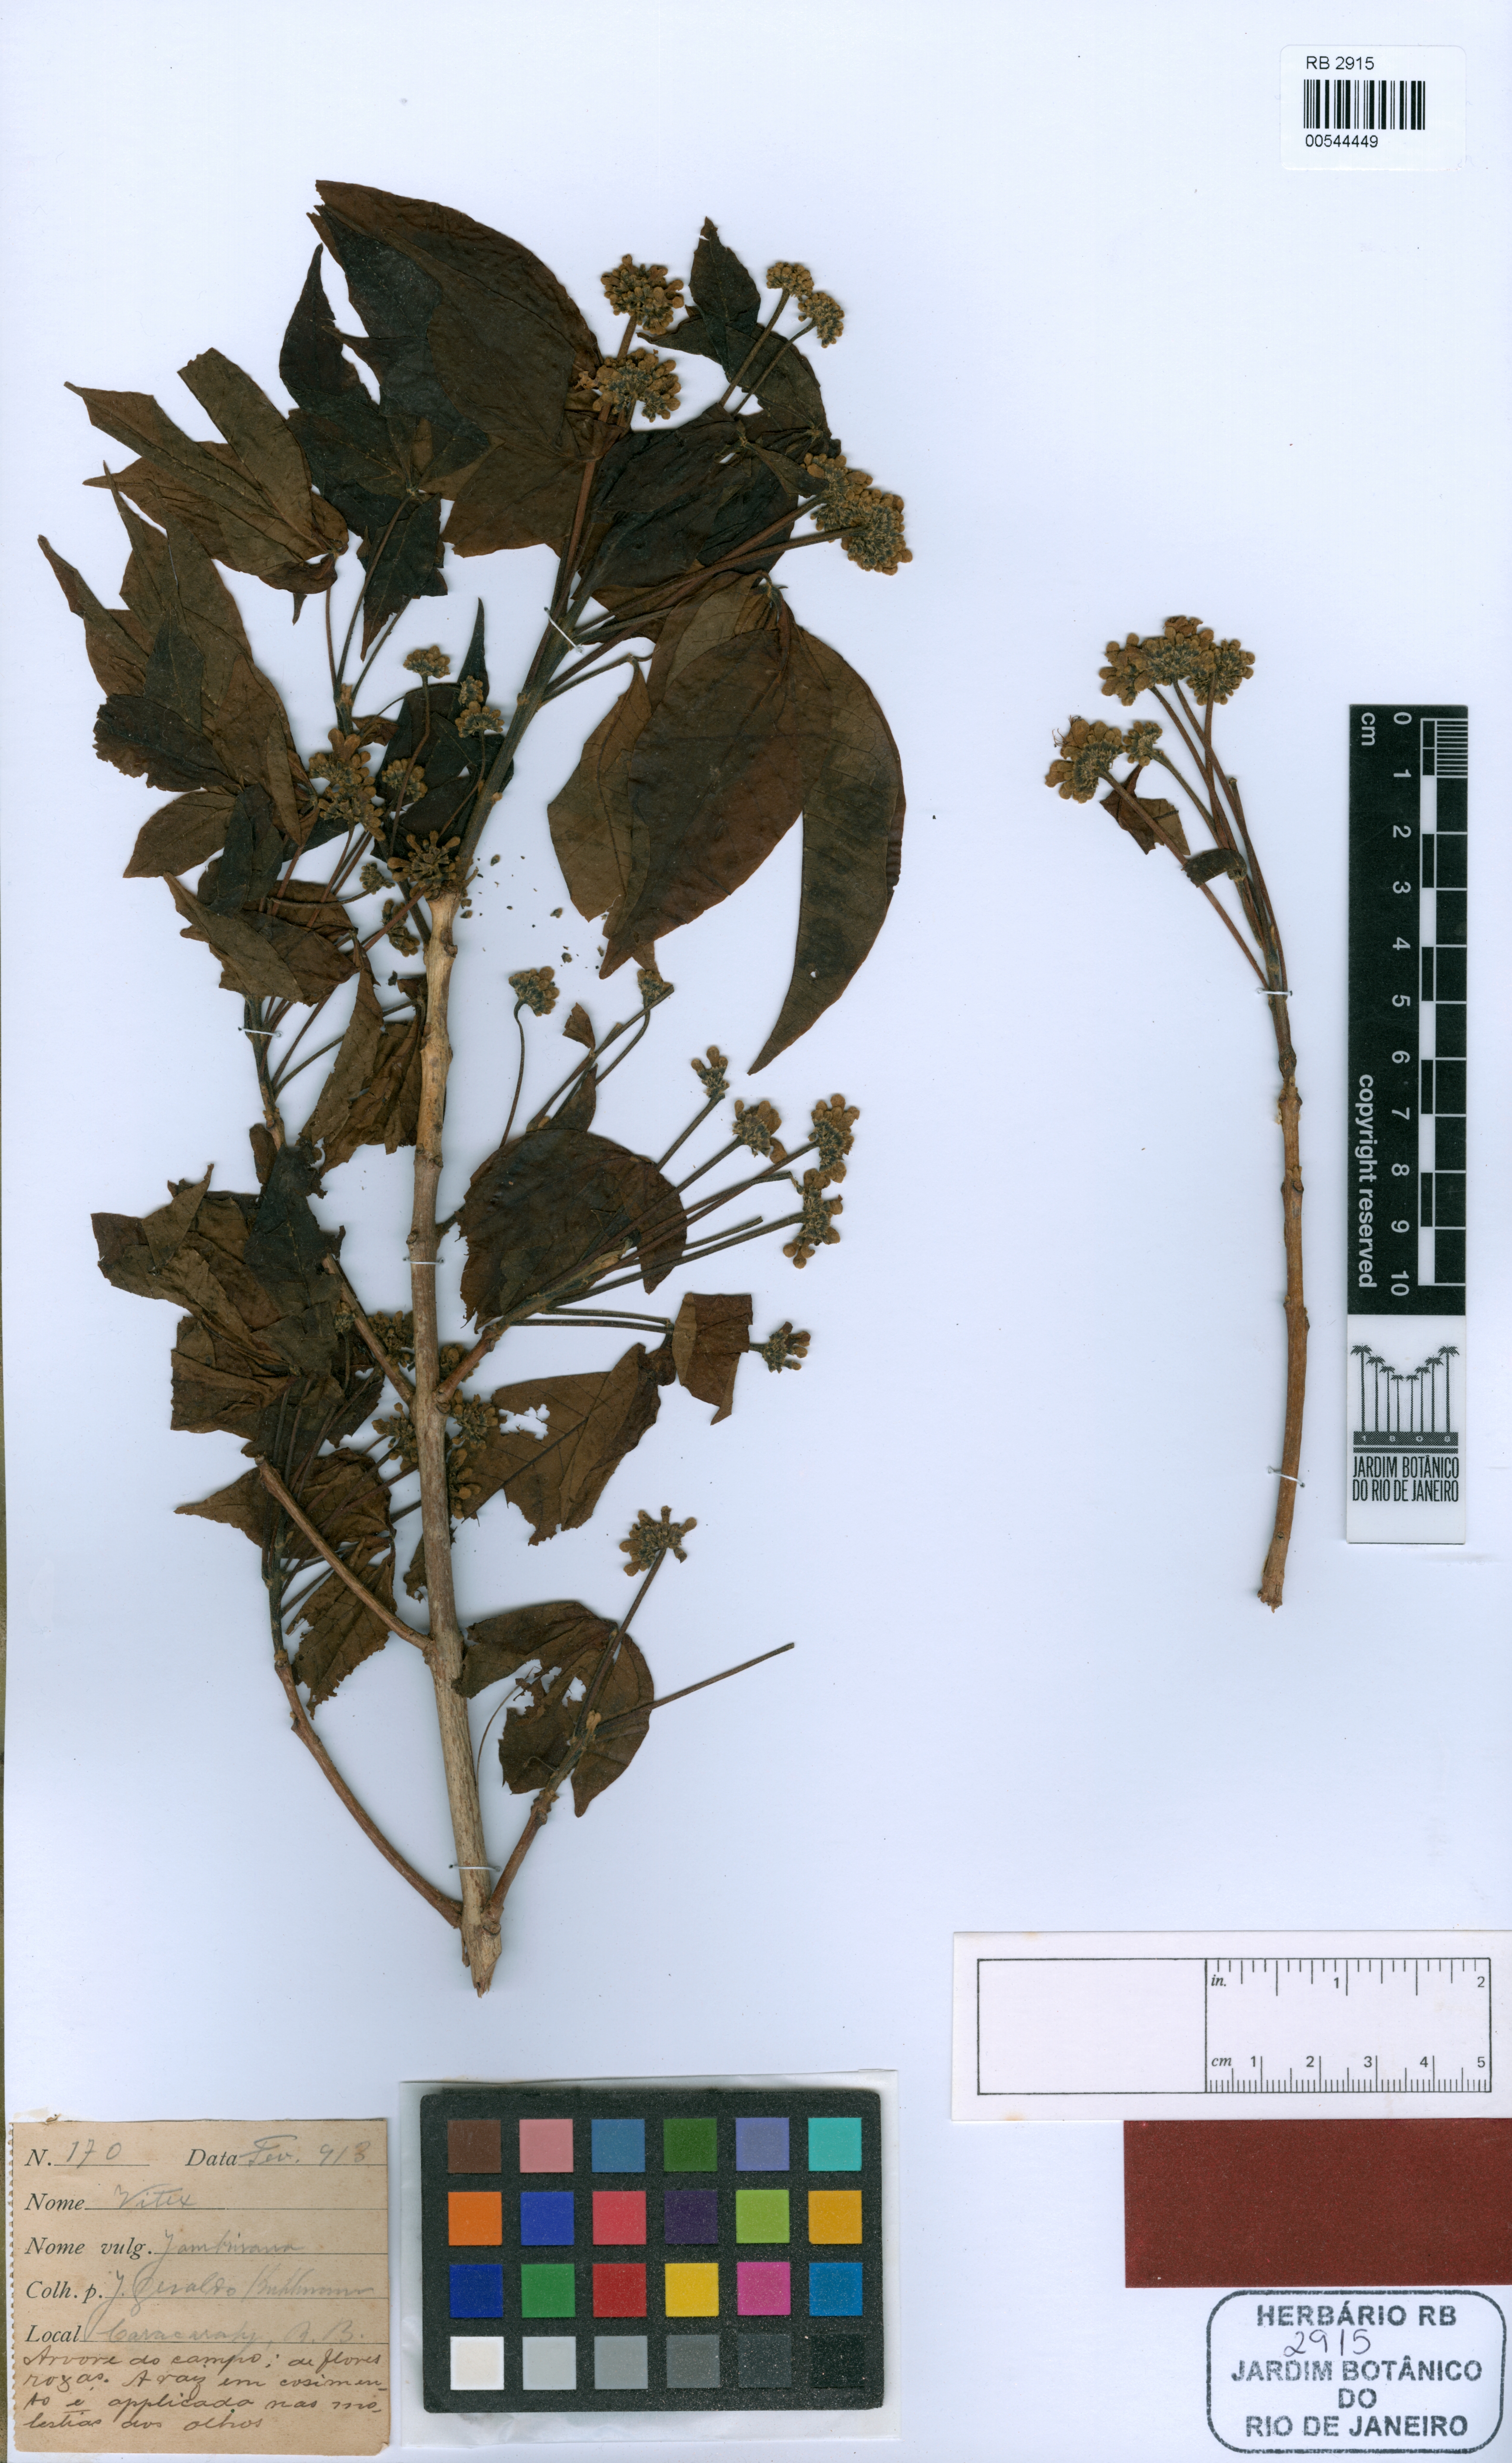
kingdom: Plantae
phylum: Tracheophyta
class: Magnoliopsida
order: Lamiales
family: Lamiaceae
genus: Vitex
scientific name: Vitex capitata
